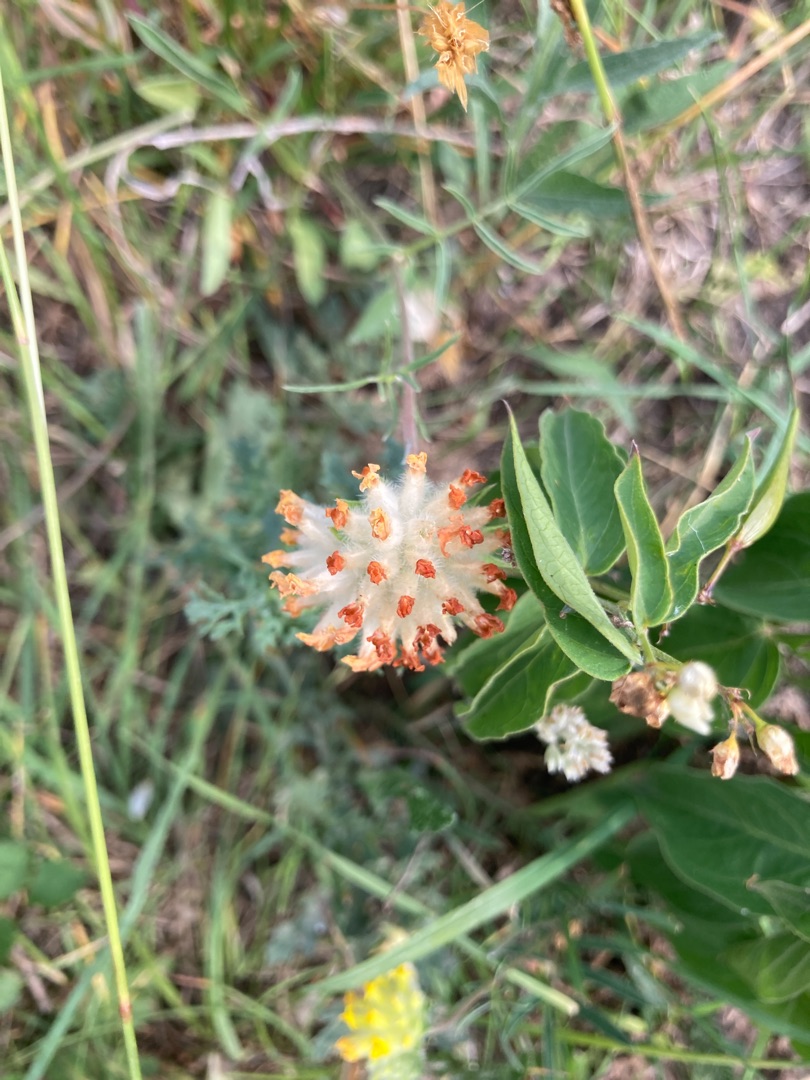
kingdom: Plantae
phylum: Tracheophyta
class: Magnoliopsida
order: Fabales
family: Fabaceae
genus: Anthyllis
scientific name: Anthyllis vulneraria
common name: Rundbælg
